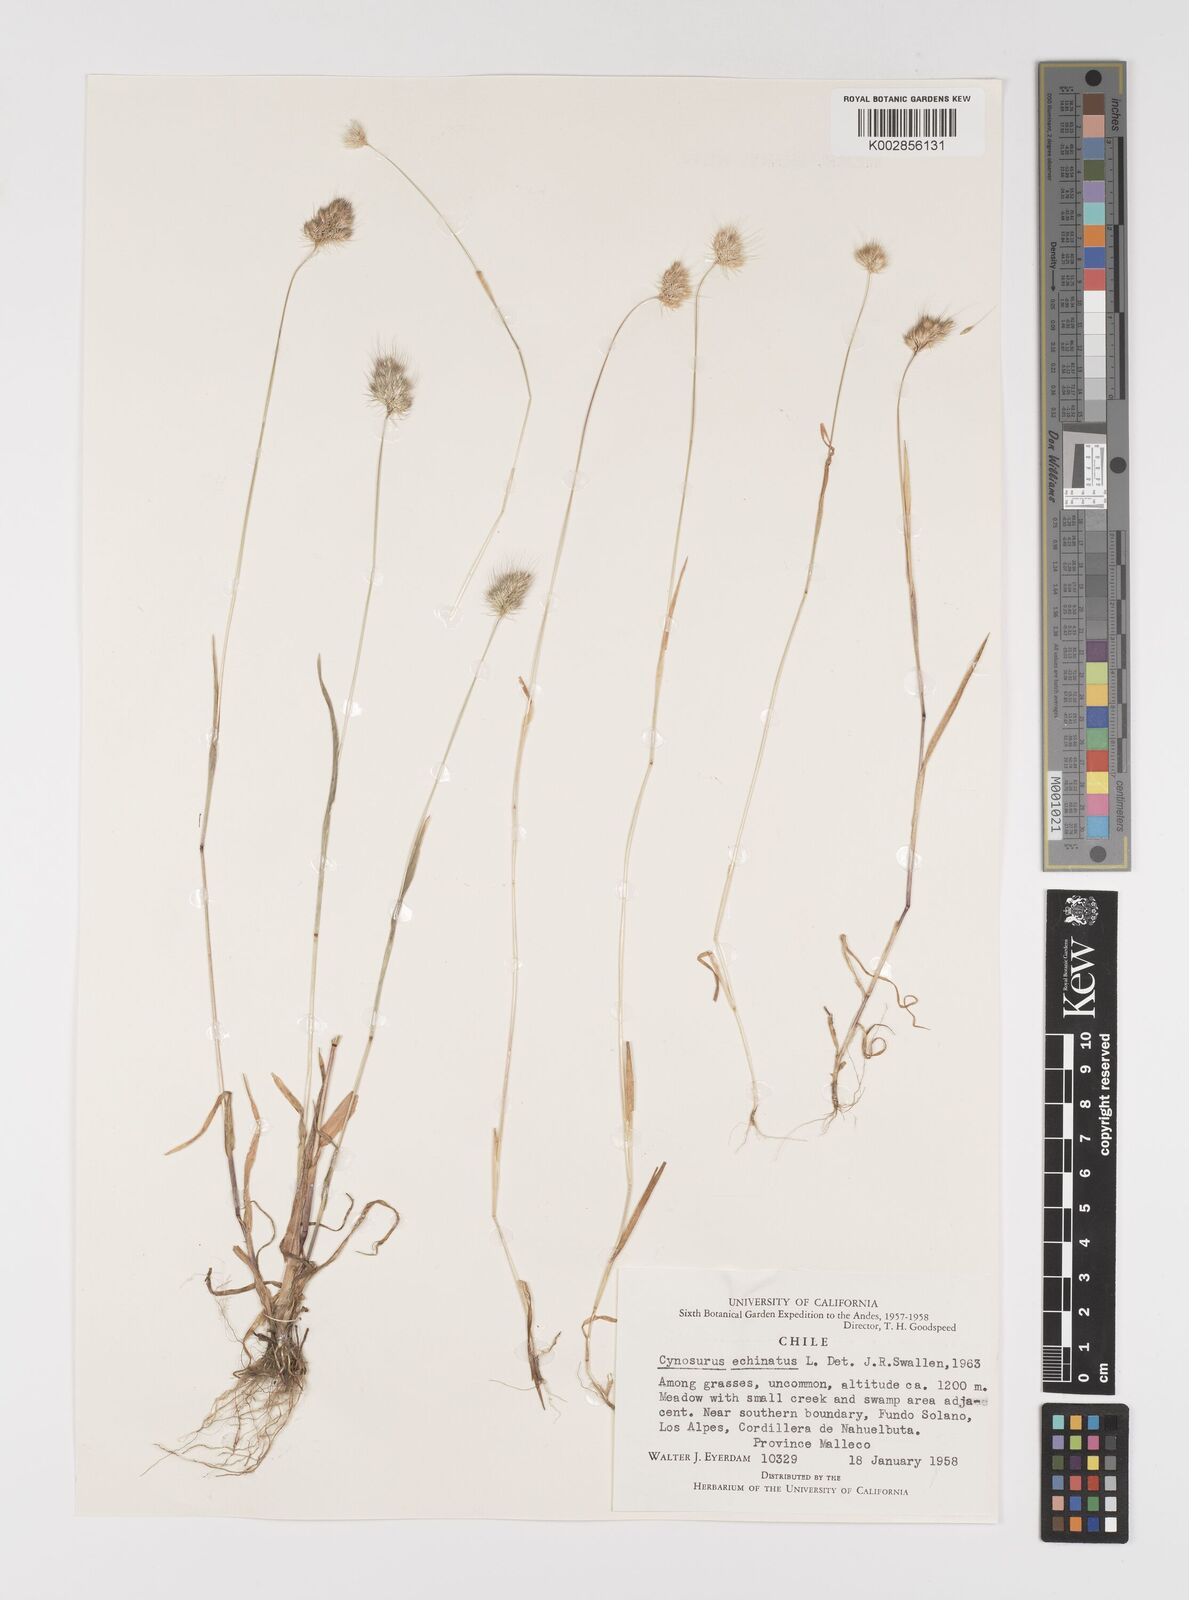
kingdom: Plantae
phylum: Tracheophyta
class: Liliopsida
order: Poales
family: Poaceae
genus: Cynosurus
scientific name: Cynosurus echinatus
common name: Rough dog's-tail
